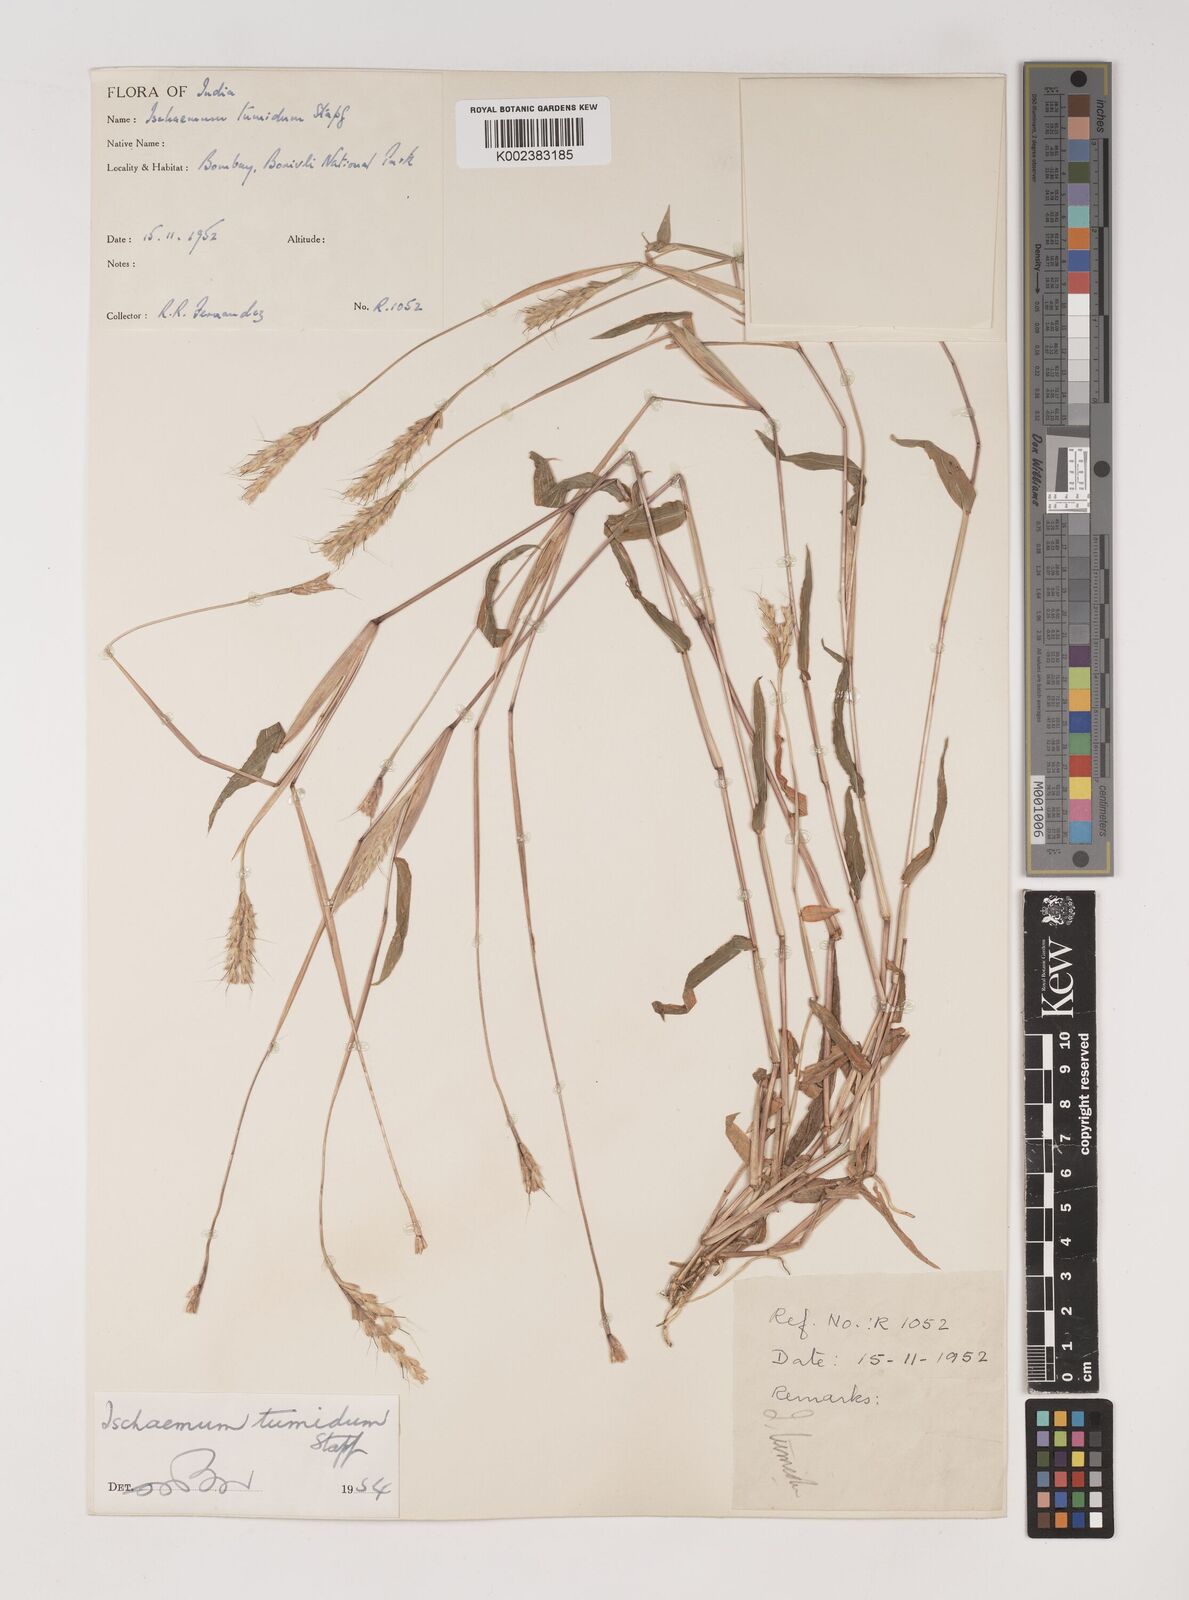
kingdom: Plantae
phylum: Tracheophyta
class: Liliopsida
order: Poales
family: Poaceae
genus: Ischaemum
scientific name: Ischaemum tumidum
